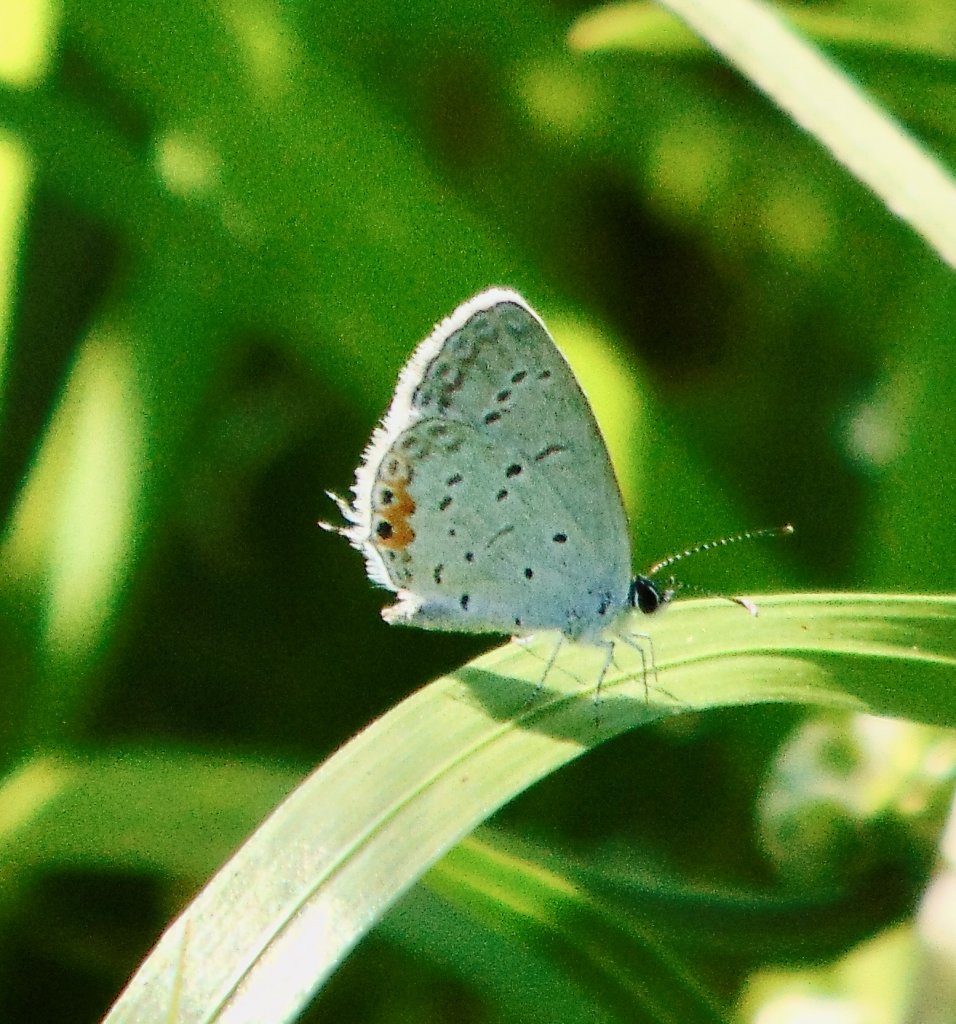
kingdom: Animalia
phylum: Arthropoda
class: Insecta
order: Lepidoptera
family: Lycaenidae
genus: Elkalyce
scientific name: Elkalyce comyntas
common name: Eastern Tailed-Blue
